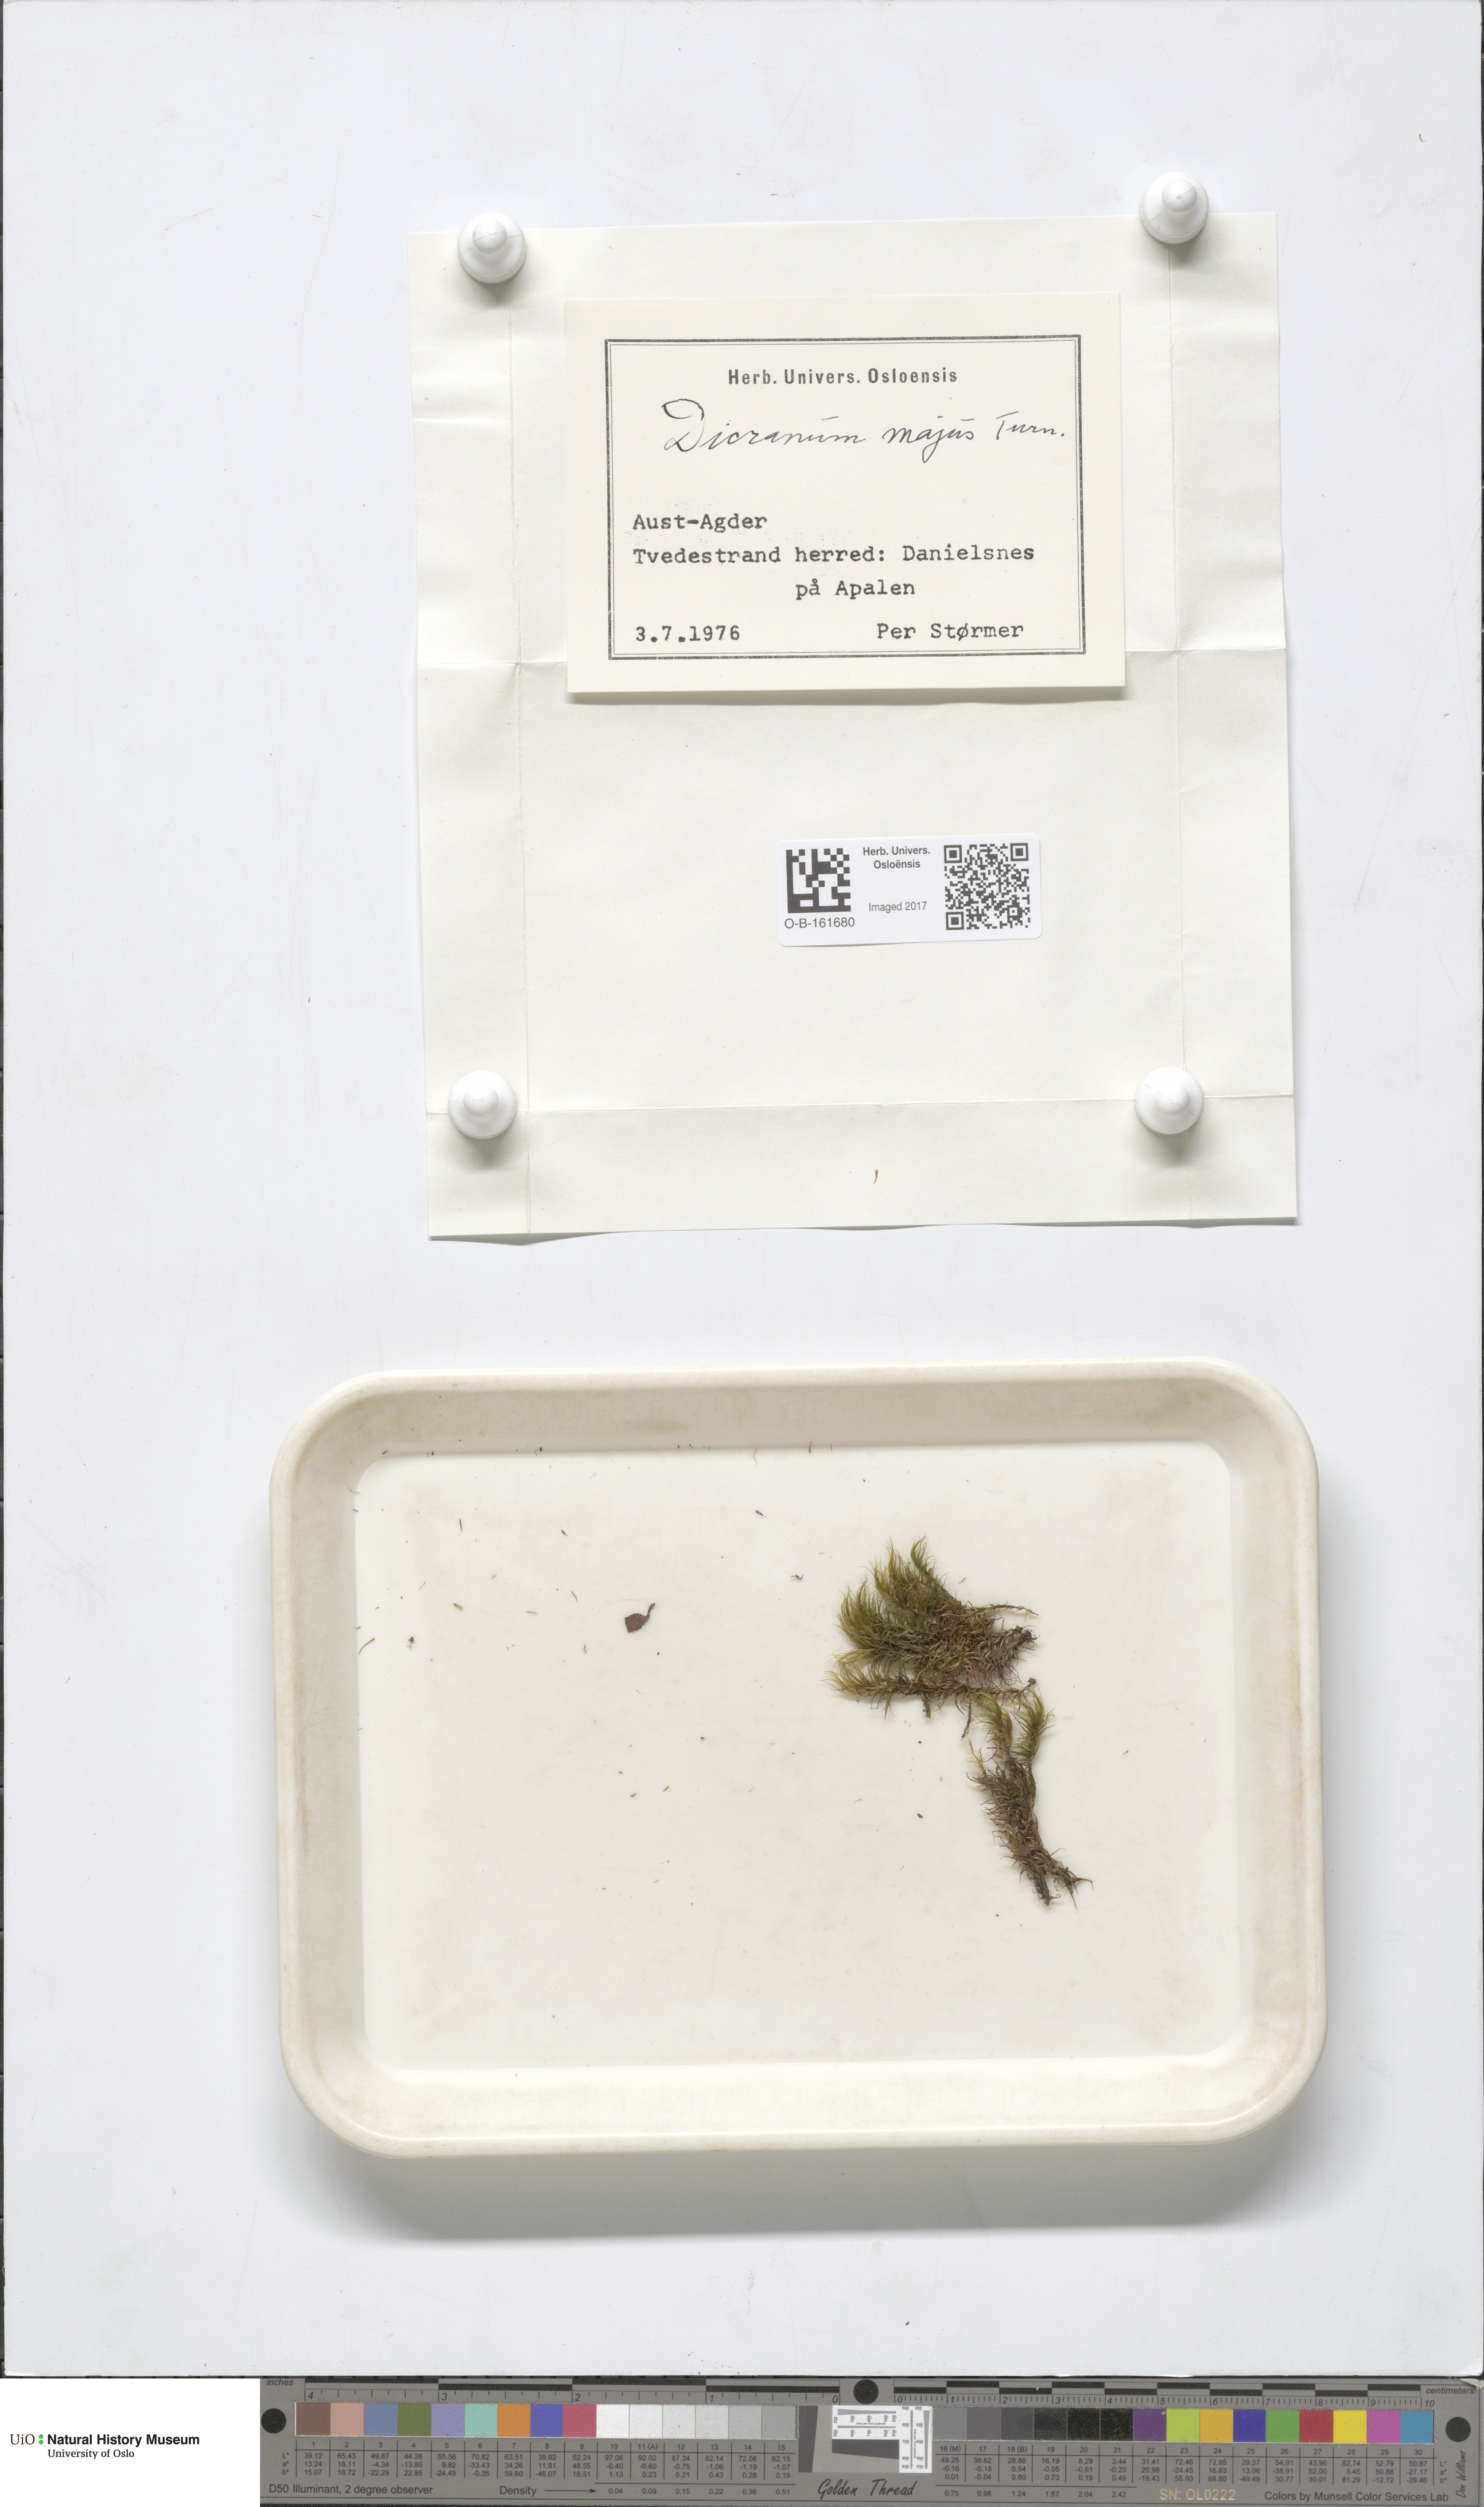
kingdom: Plantae
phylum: Bryophyta
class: Bryopsida
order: Dicranales
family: Dicranaceae
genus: Dicranum
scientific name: Dicranum majus
